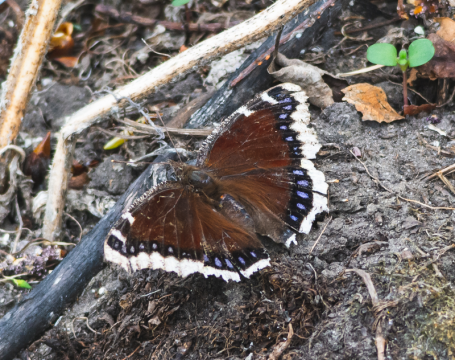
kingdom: Animalia
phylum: Arthropoda
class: Insecta
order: Lepidoptera
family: Nymphalidae
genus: Nymphalis
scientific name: Nymphalis antiopa
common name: Mourning Cloak
